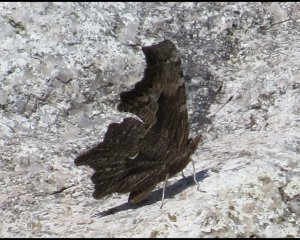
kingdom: Animalia
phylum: Arthropoda
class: Insecta
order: Lepidoptera
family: Nymphalidae
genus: Polygonia
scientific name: Polygonia progne
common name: Gray Comma
